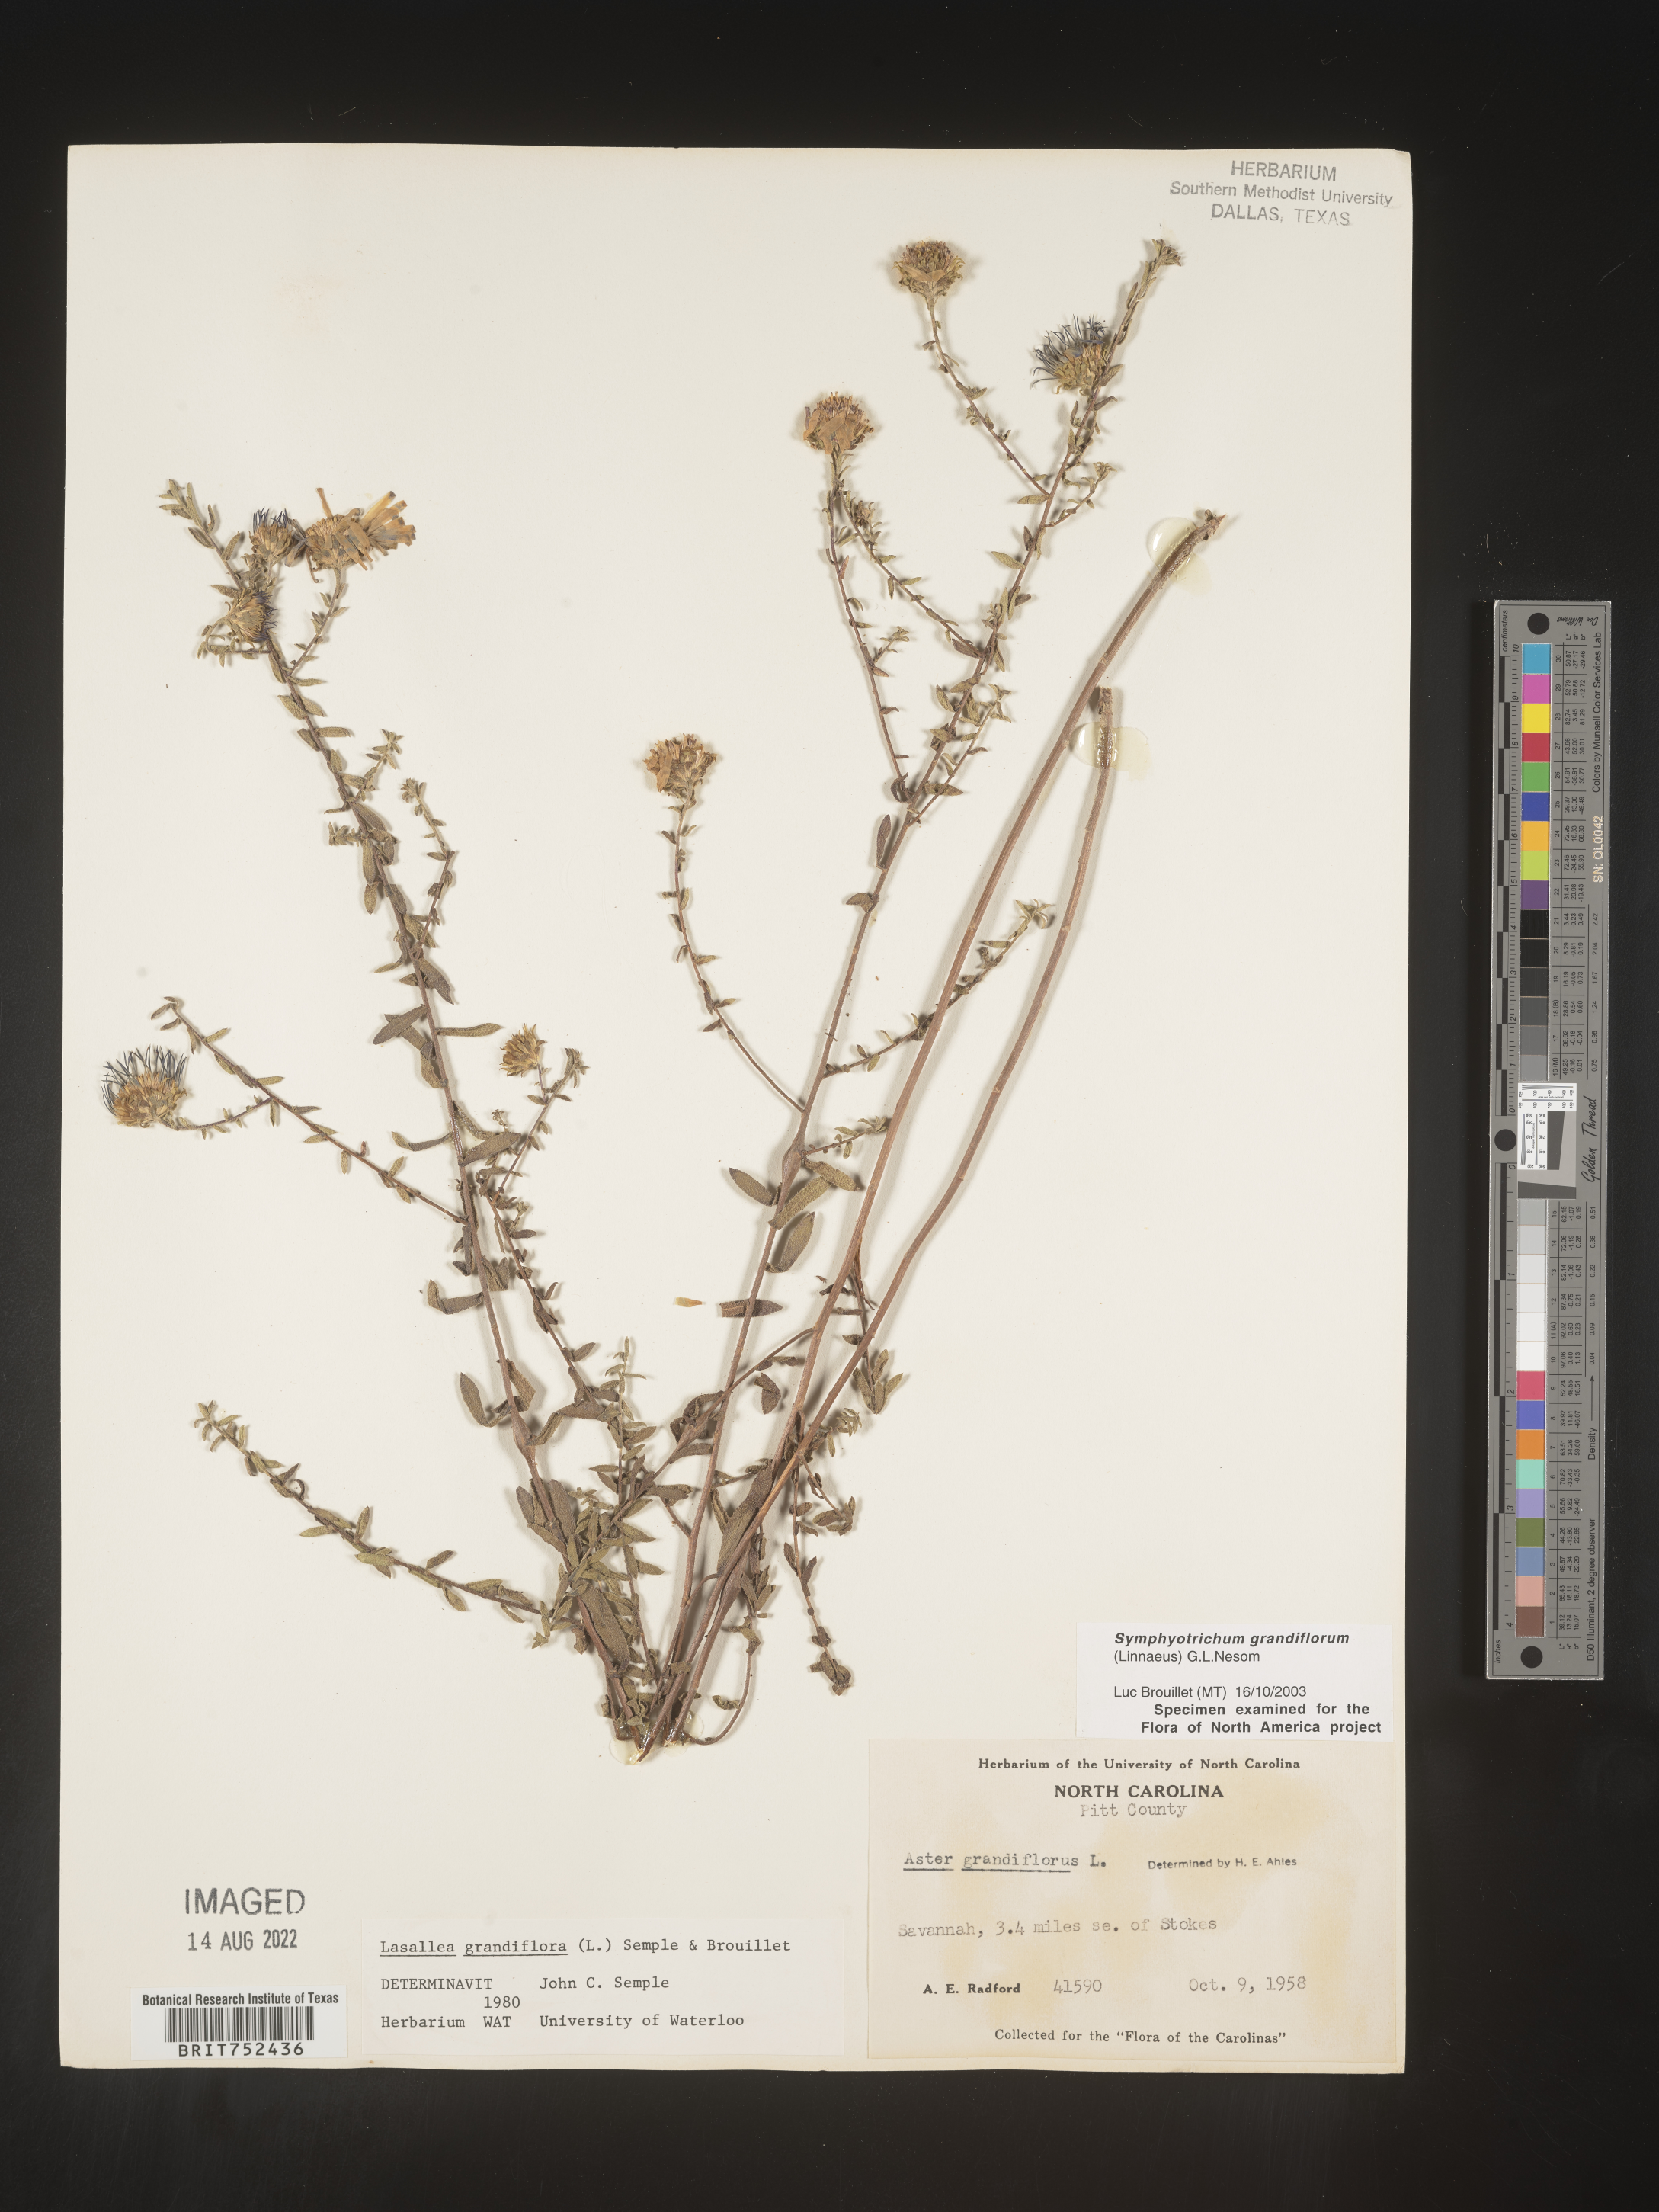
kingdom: Plantae
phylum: Tracheophyta
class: Magnoliopsida
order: Asterales
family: Asteraceae
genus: Symphyotrichum
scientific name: Symphyotrichum grandiflorum
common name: Big-head aster
